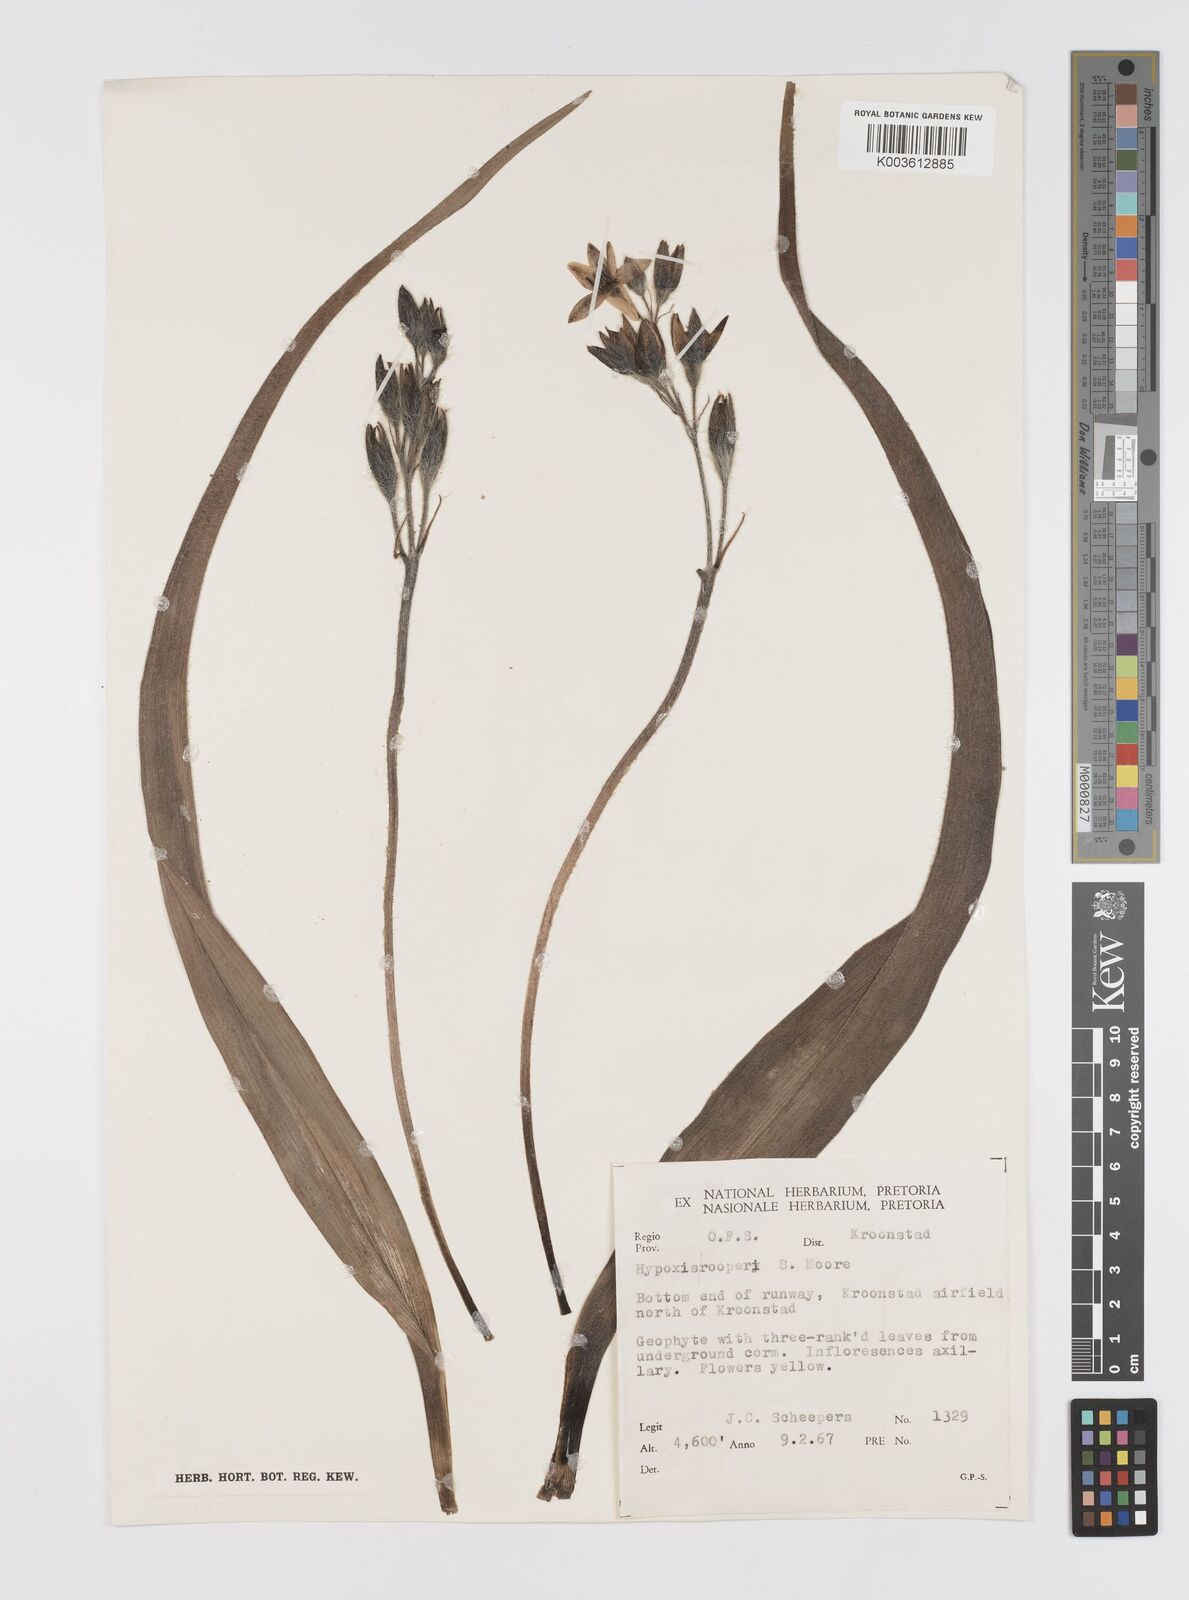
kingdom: Plantae
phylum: Tracheophyta
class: Liliopsida
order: Asparagales
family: Hypoxidaceae
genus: Hypoxis
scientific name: Hypoxis hemerocallidea
